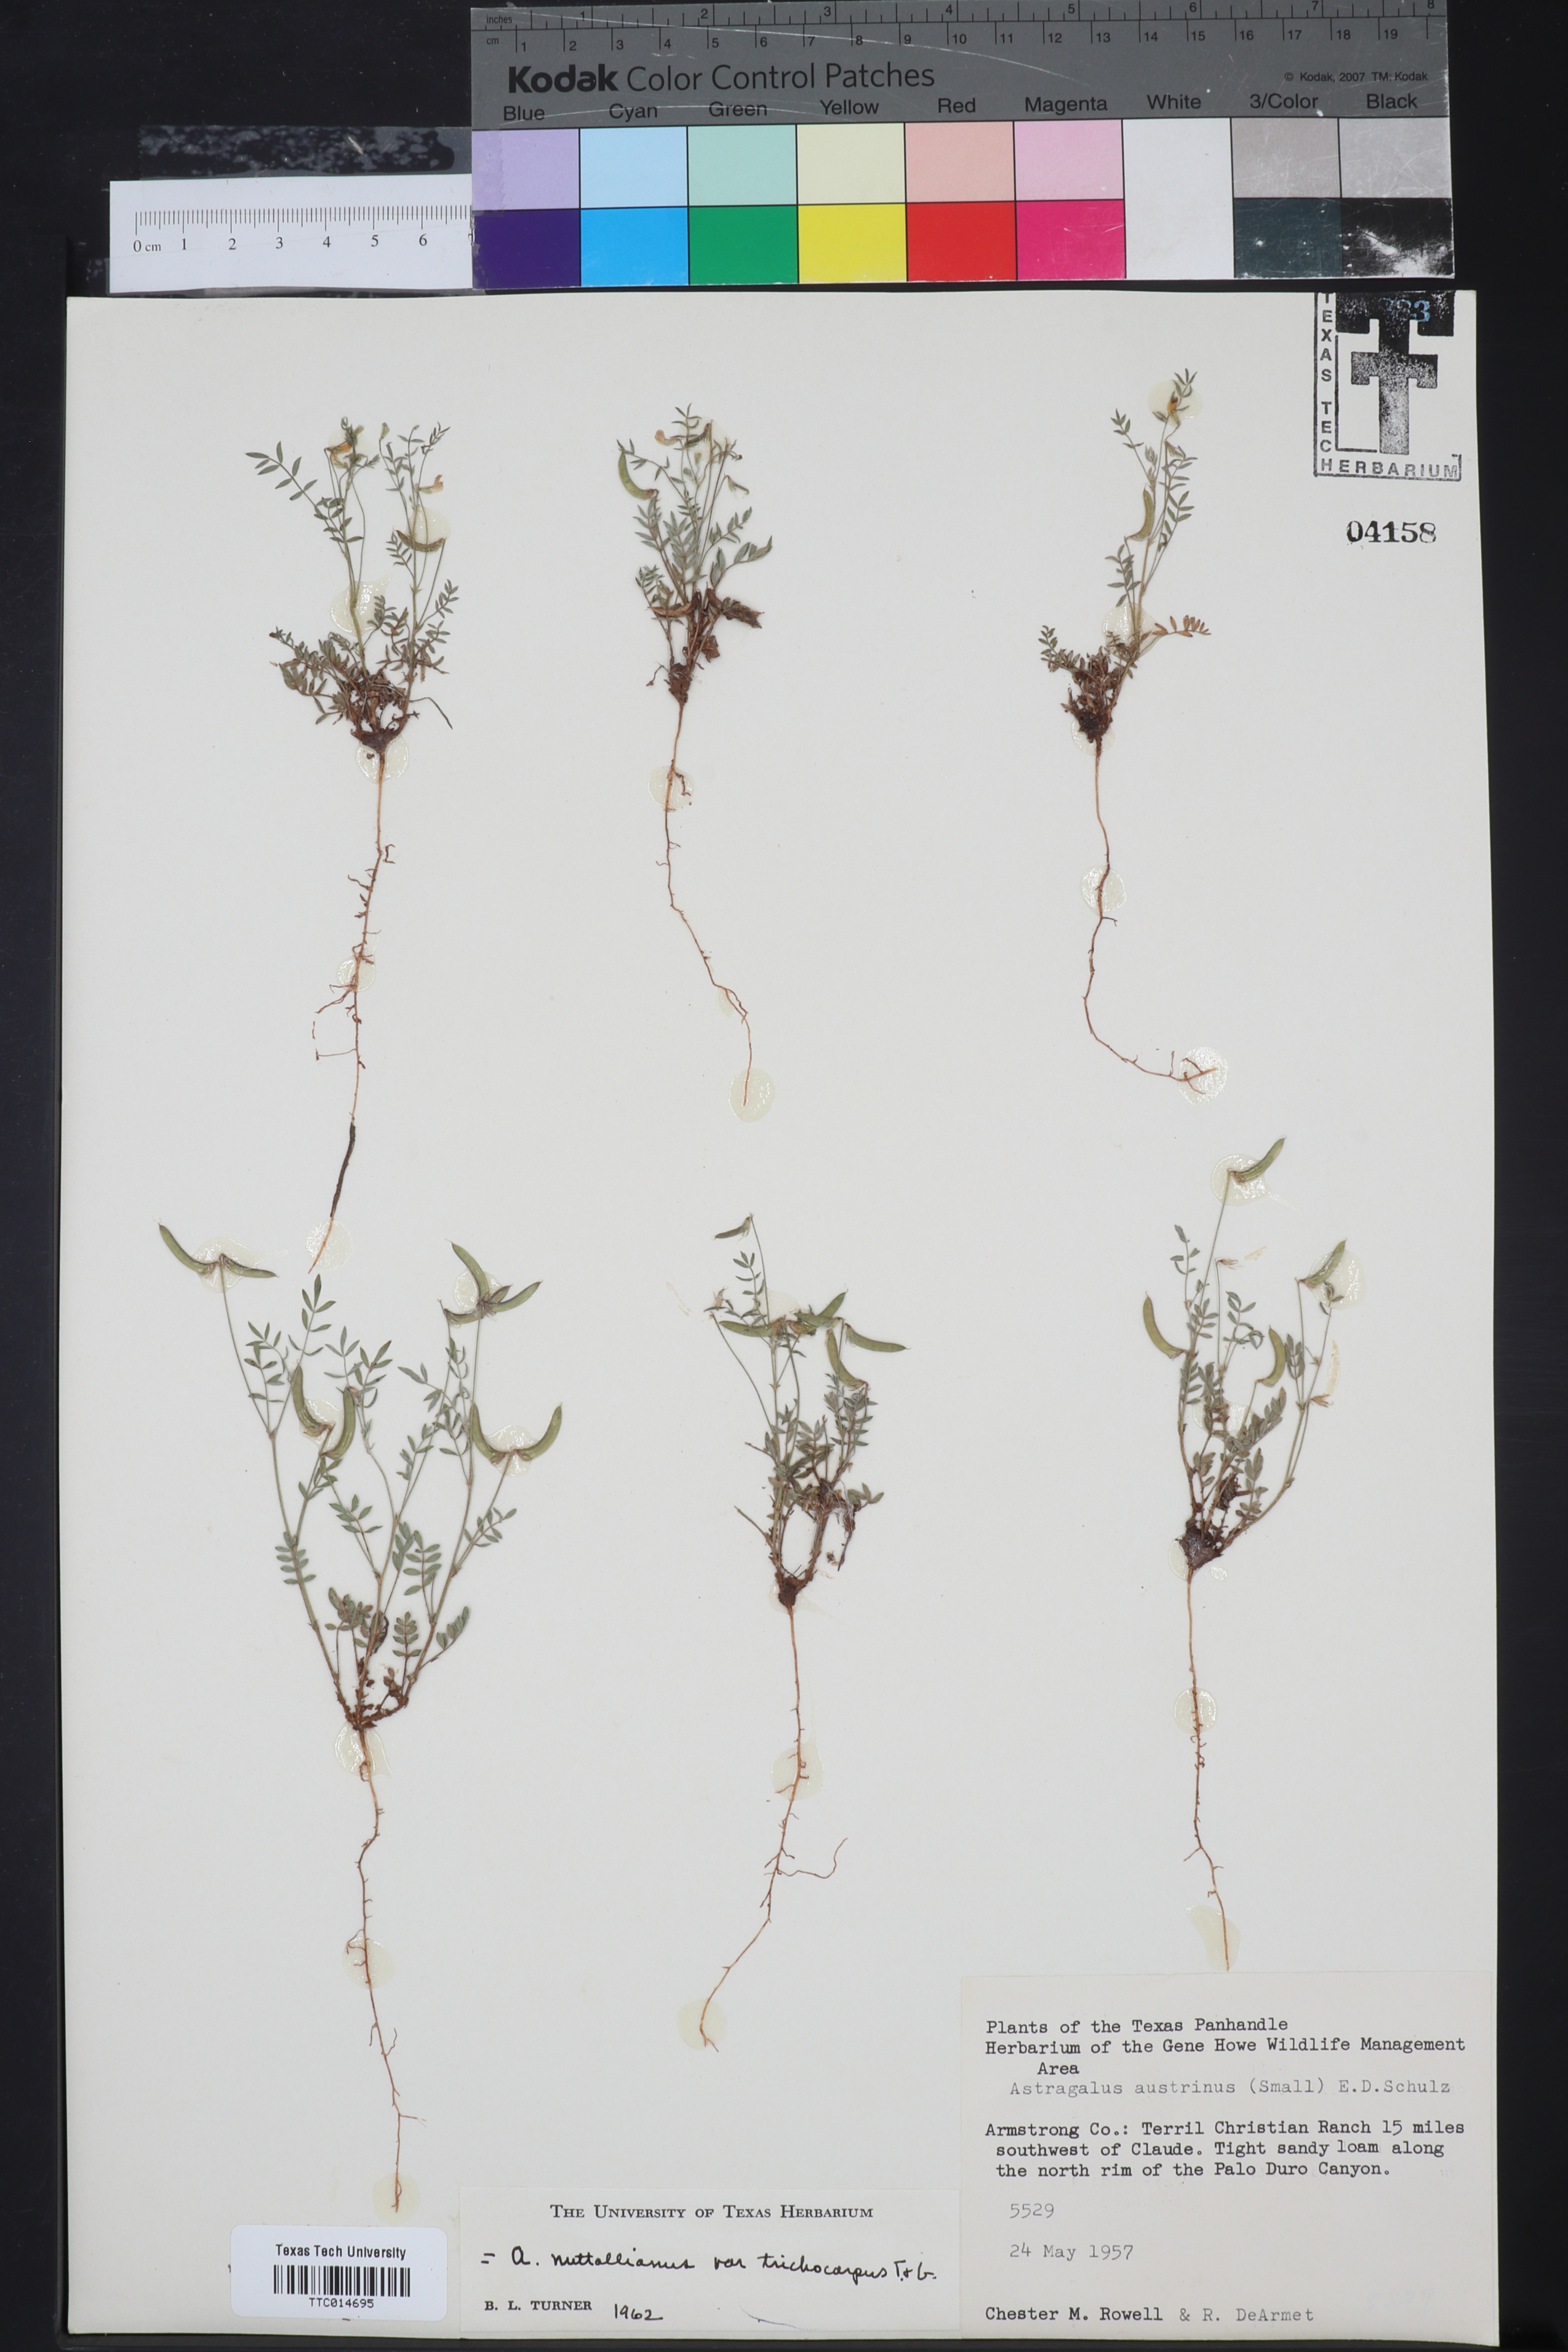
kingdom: Plantae
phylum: Tracheophyta
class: Magnoliopsida
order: Fabales
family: Fabaceae
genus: Astragalus
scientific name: Astragalus nuttallianus
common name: Smallflowered milkvetch
